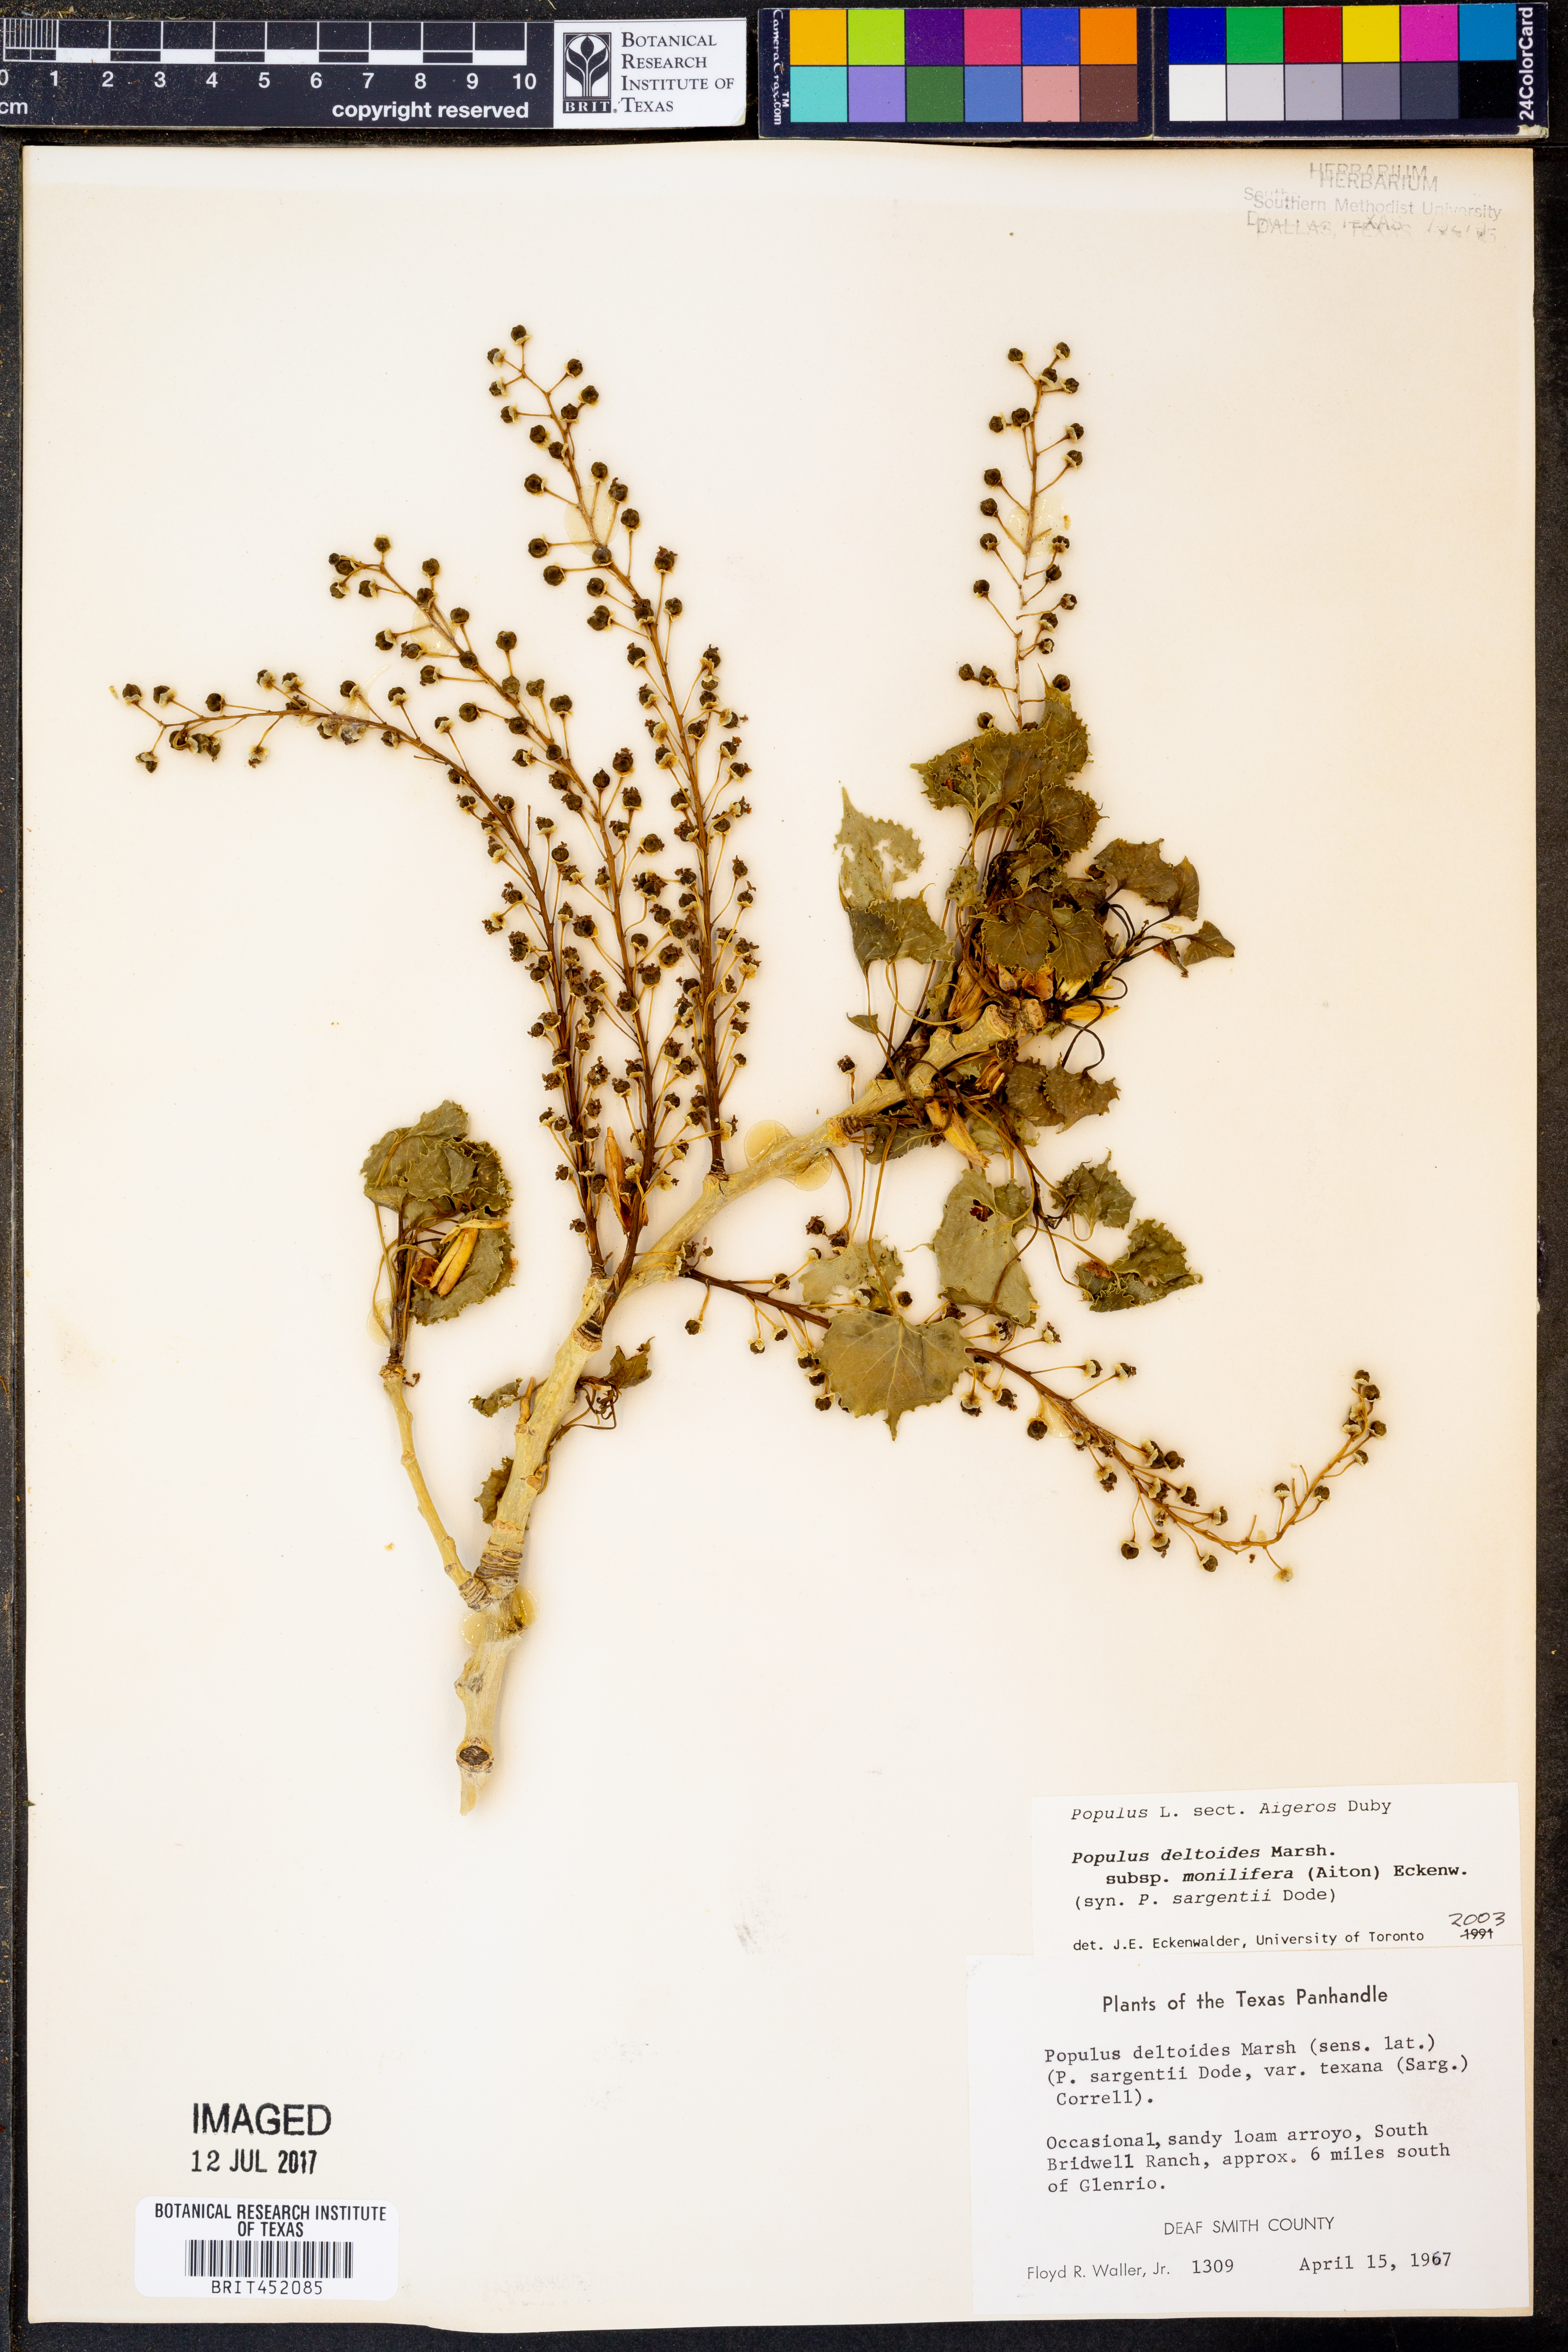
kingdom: Plantae
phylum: Tracheophyta
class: Magnoliopsida
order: Malpighiales
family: Salicaceae
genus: Populus
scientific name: Populus deltoides
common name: Eastern cottonwood
